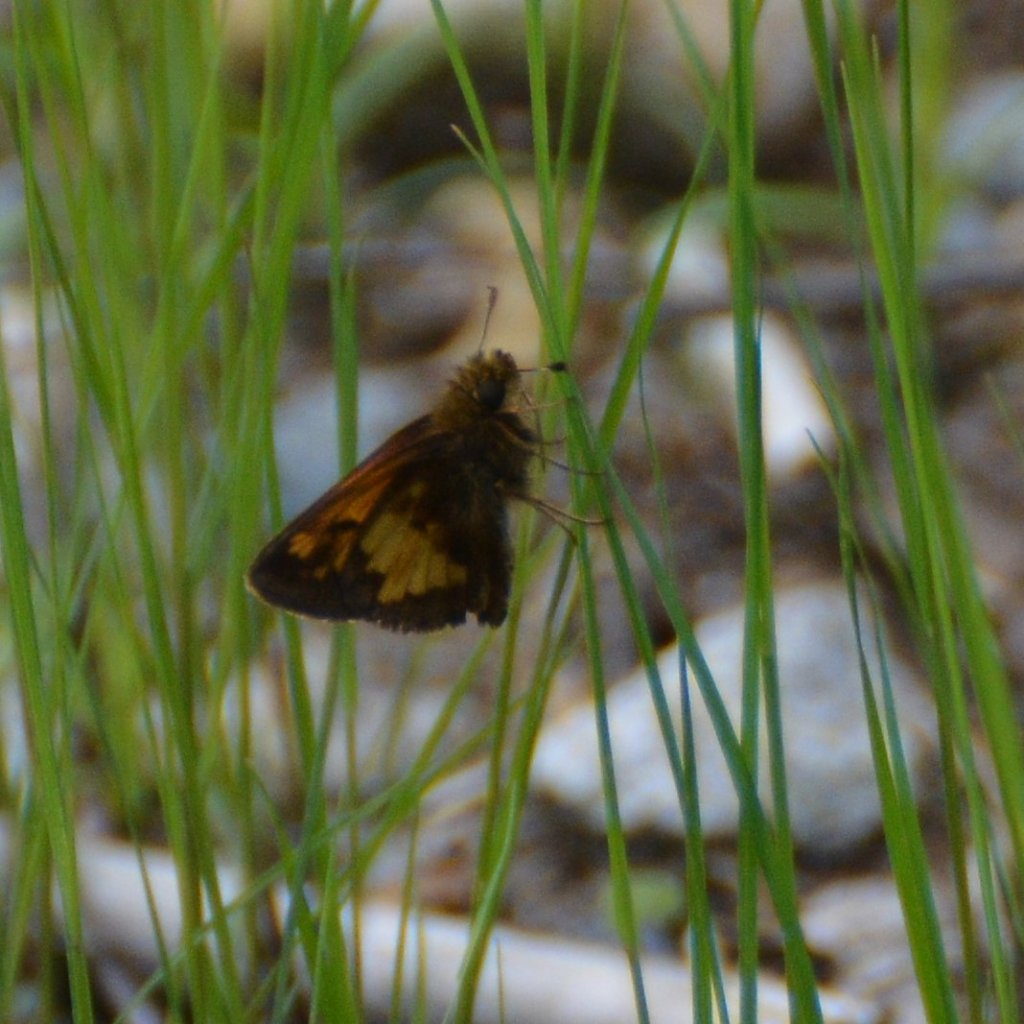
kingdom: Animalia
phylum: Arthropoda
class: Insecta
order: Lepidoptera
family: Hesperiidae
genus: Lon
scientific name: Lon hobomok
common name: Hobomok Skipper
